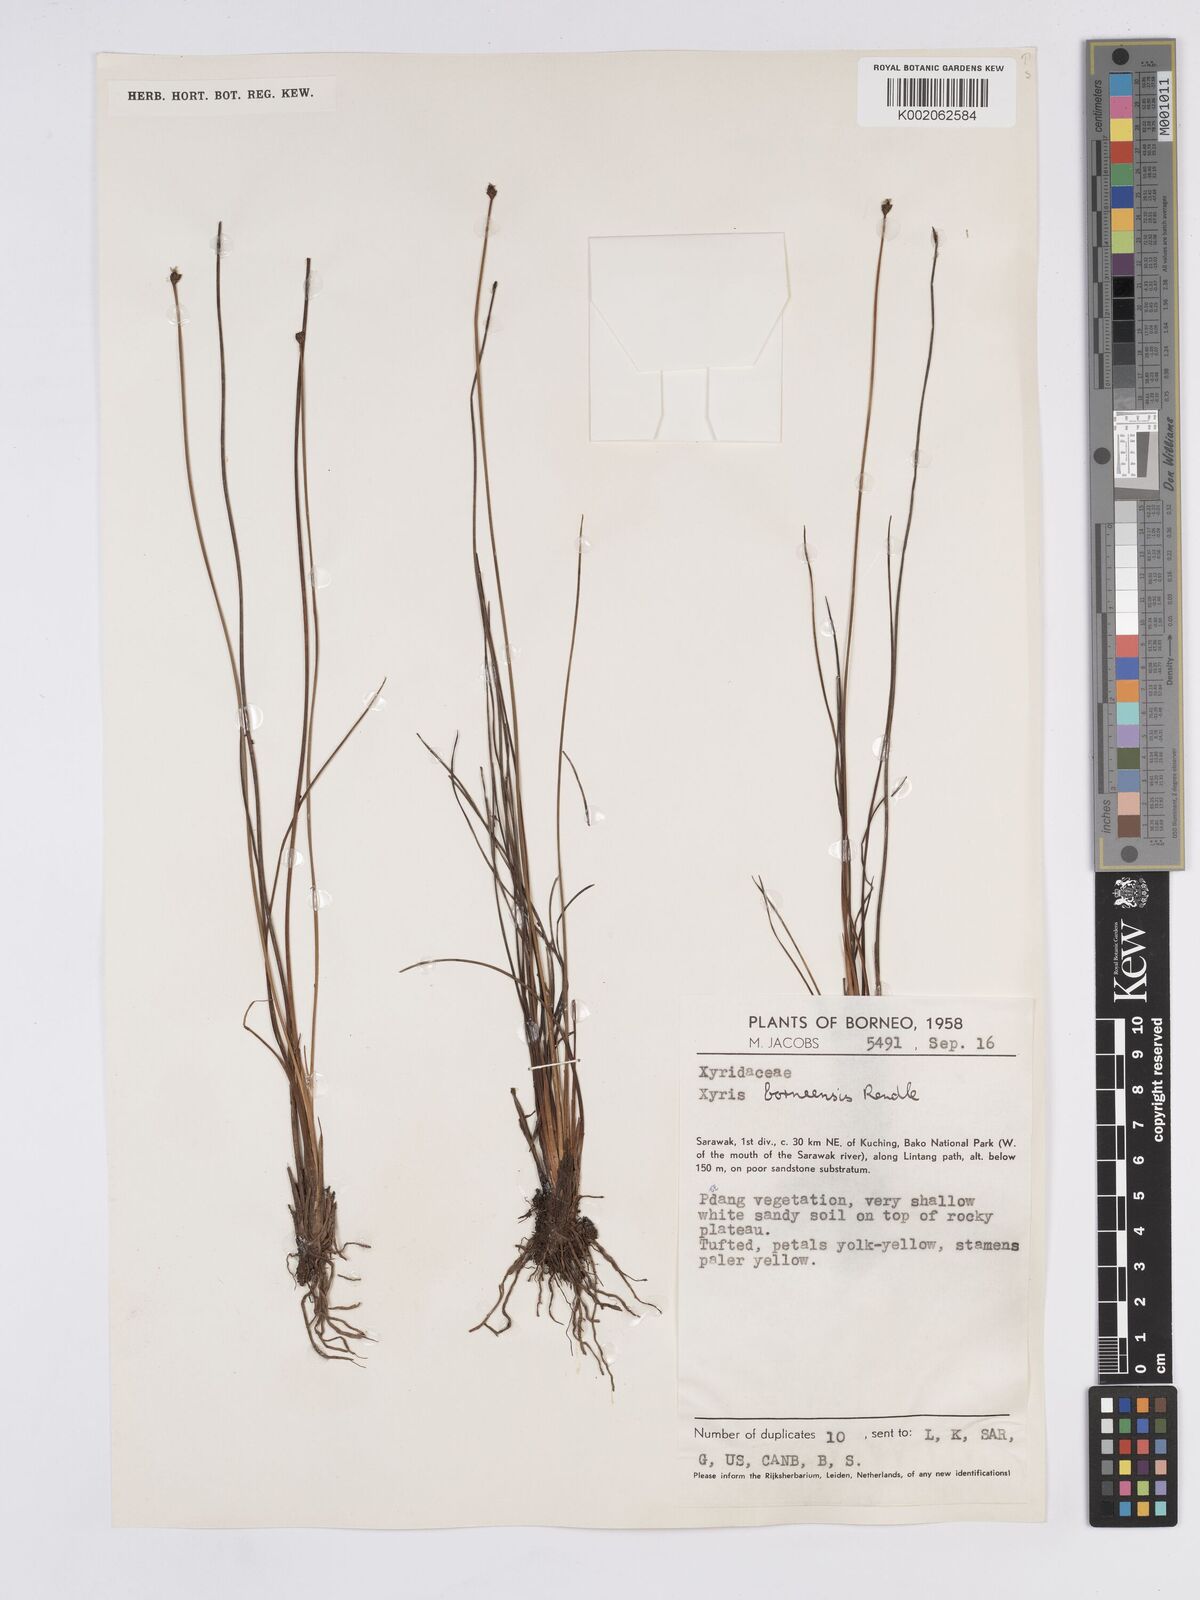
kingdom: Plantae
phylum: Tracheophyta
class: Liliopsida
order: Poales
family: Xyridaceae
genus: Xyris
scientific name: Xyris bancana
